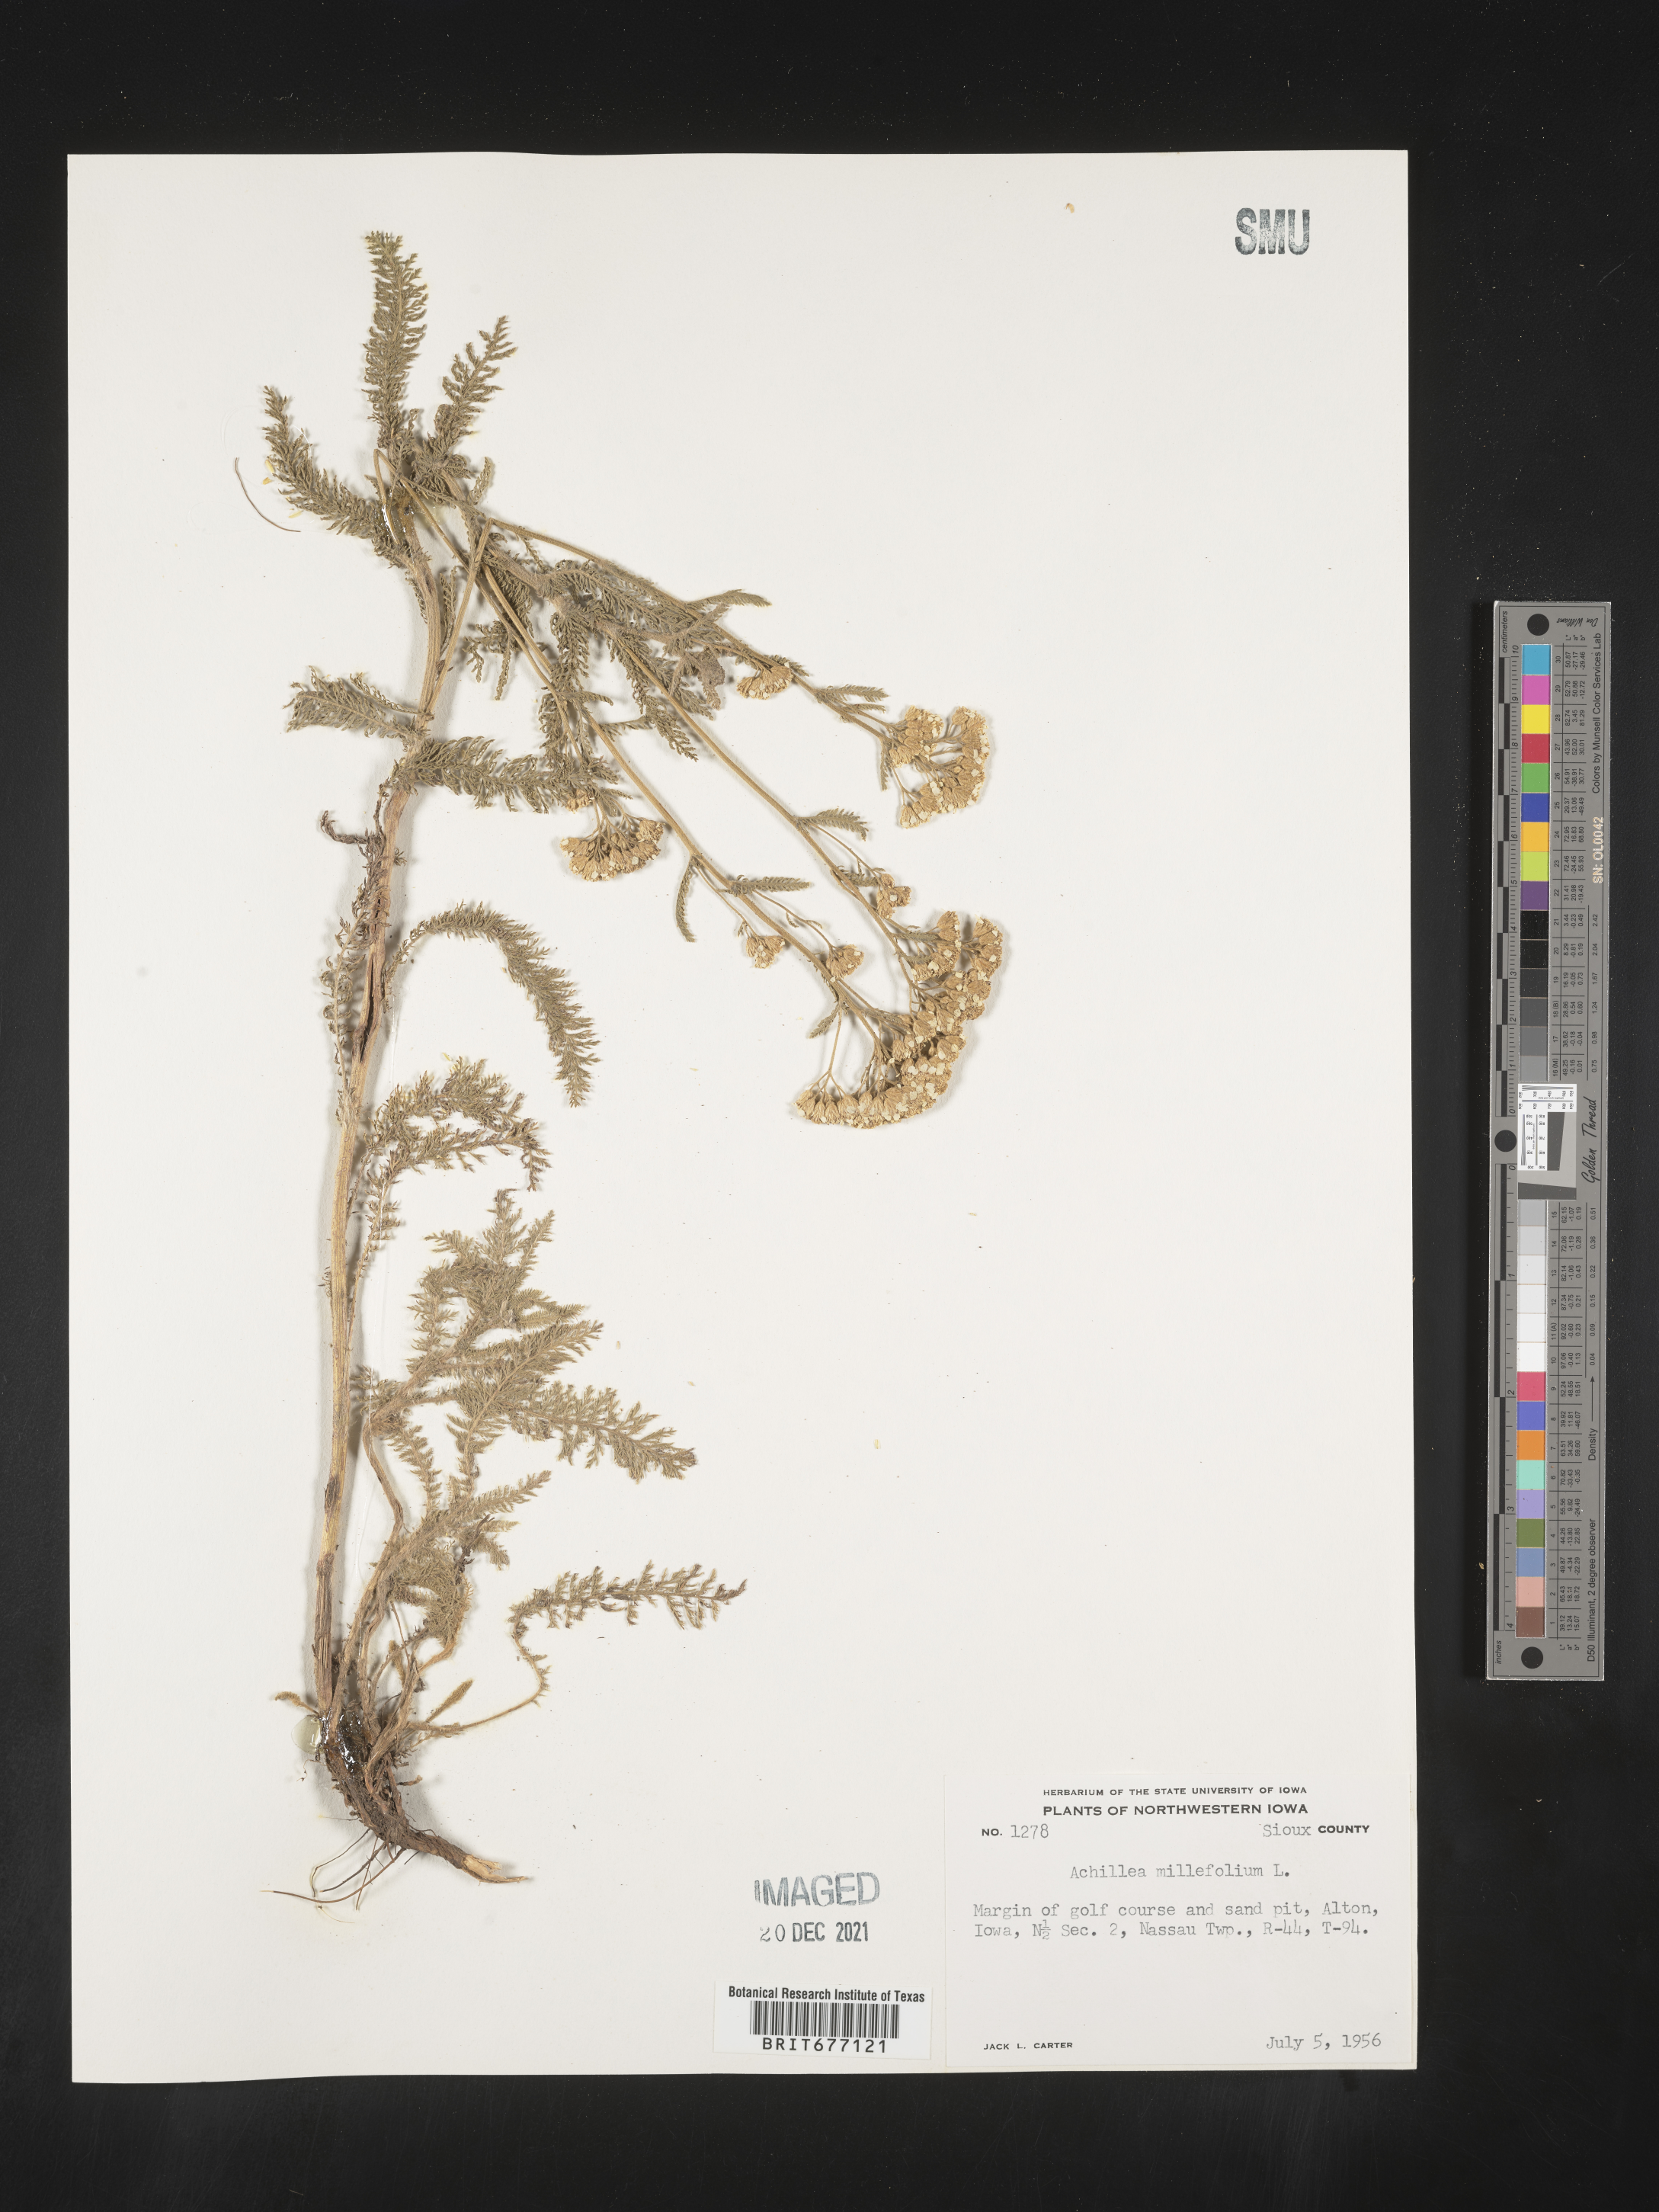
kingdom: Plantae
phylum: Tracheophyta
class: Magnoliopsida
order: Asterales
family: Asteraceae
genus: Achillea
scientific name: Achillea millefolium
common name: Yarrow
